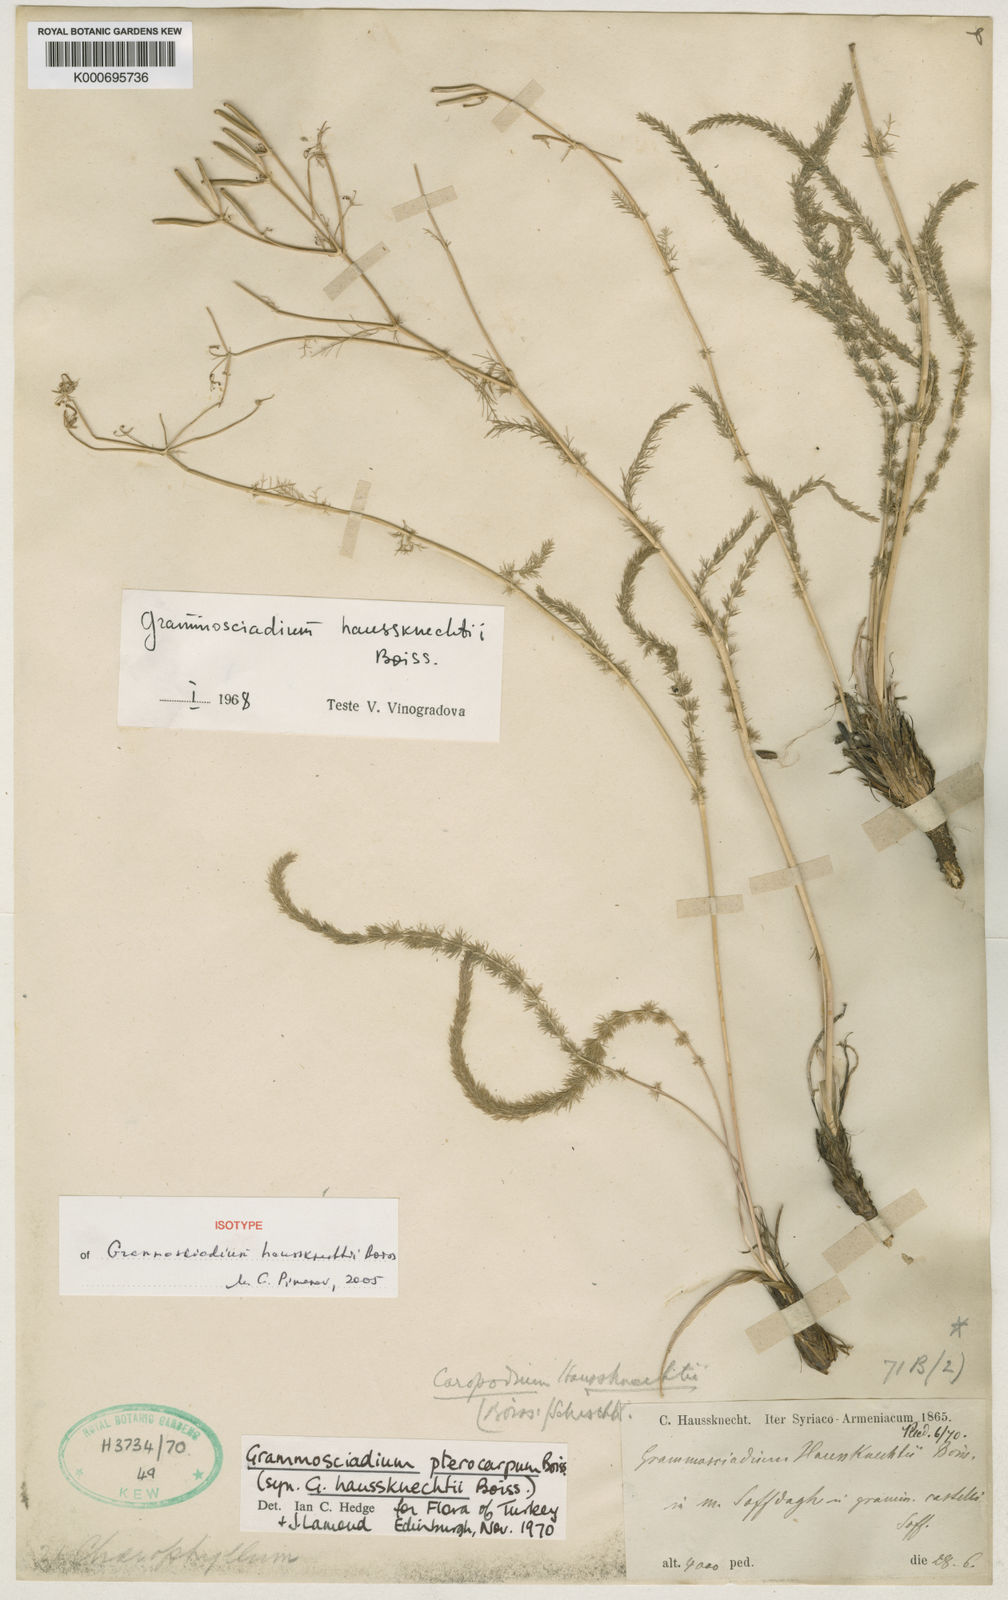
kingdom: Plantae
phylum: Tracheophyta
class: Magnoliopsida
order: Apiales
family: Apiaceae
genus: Caropodium
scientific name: Caropodium haussknechtii
